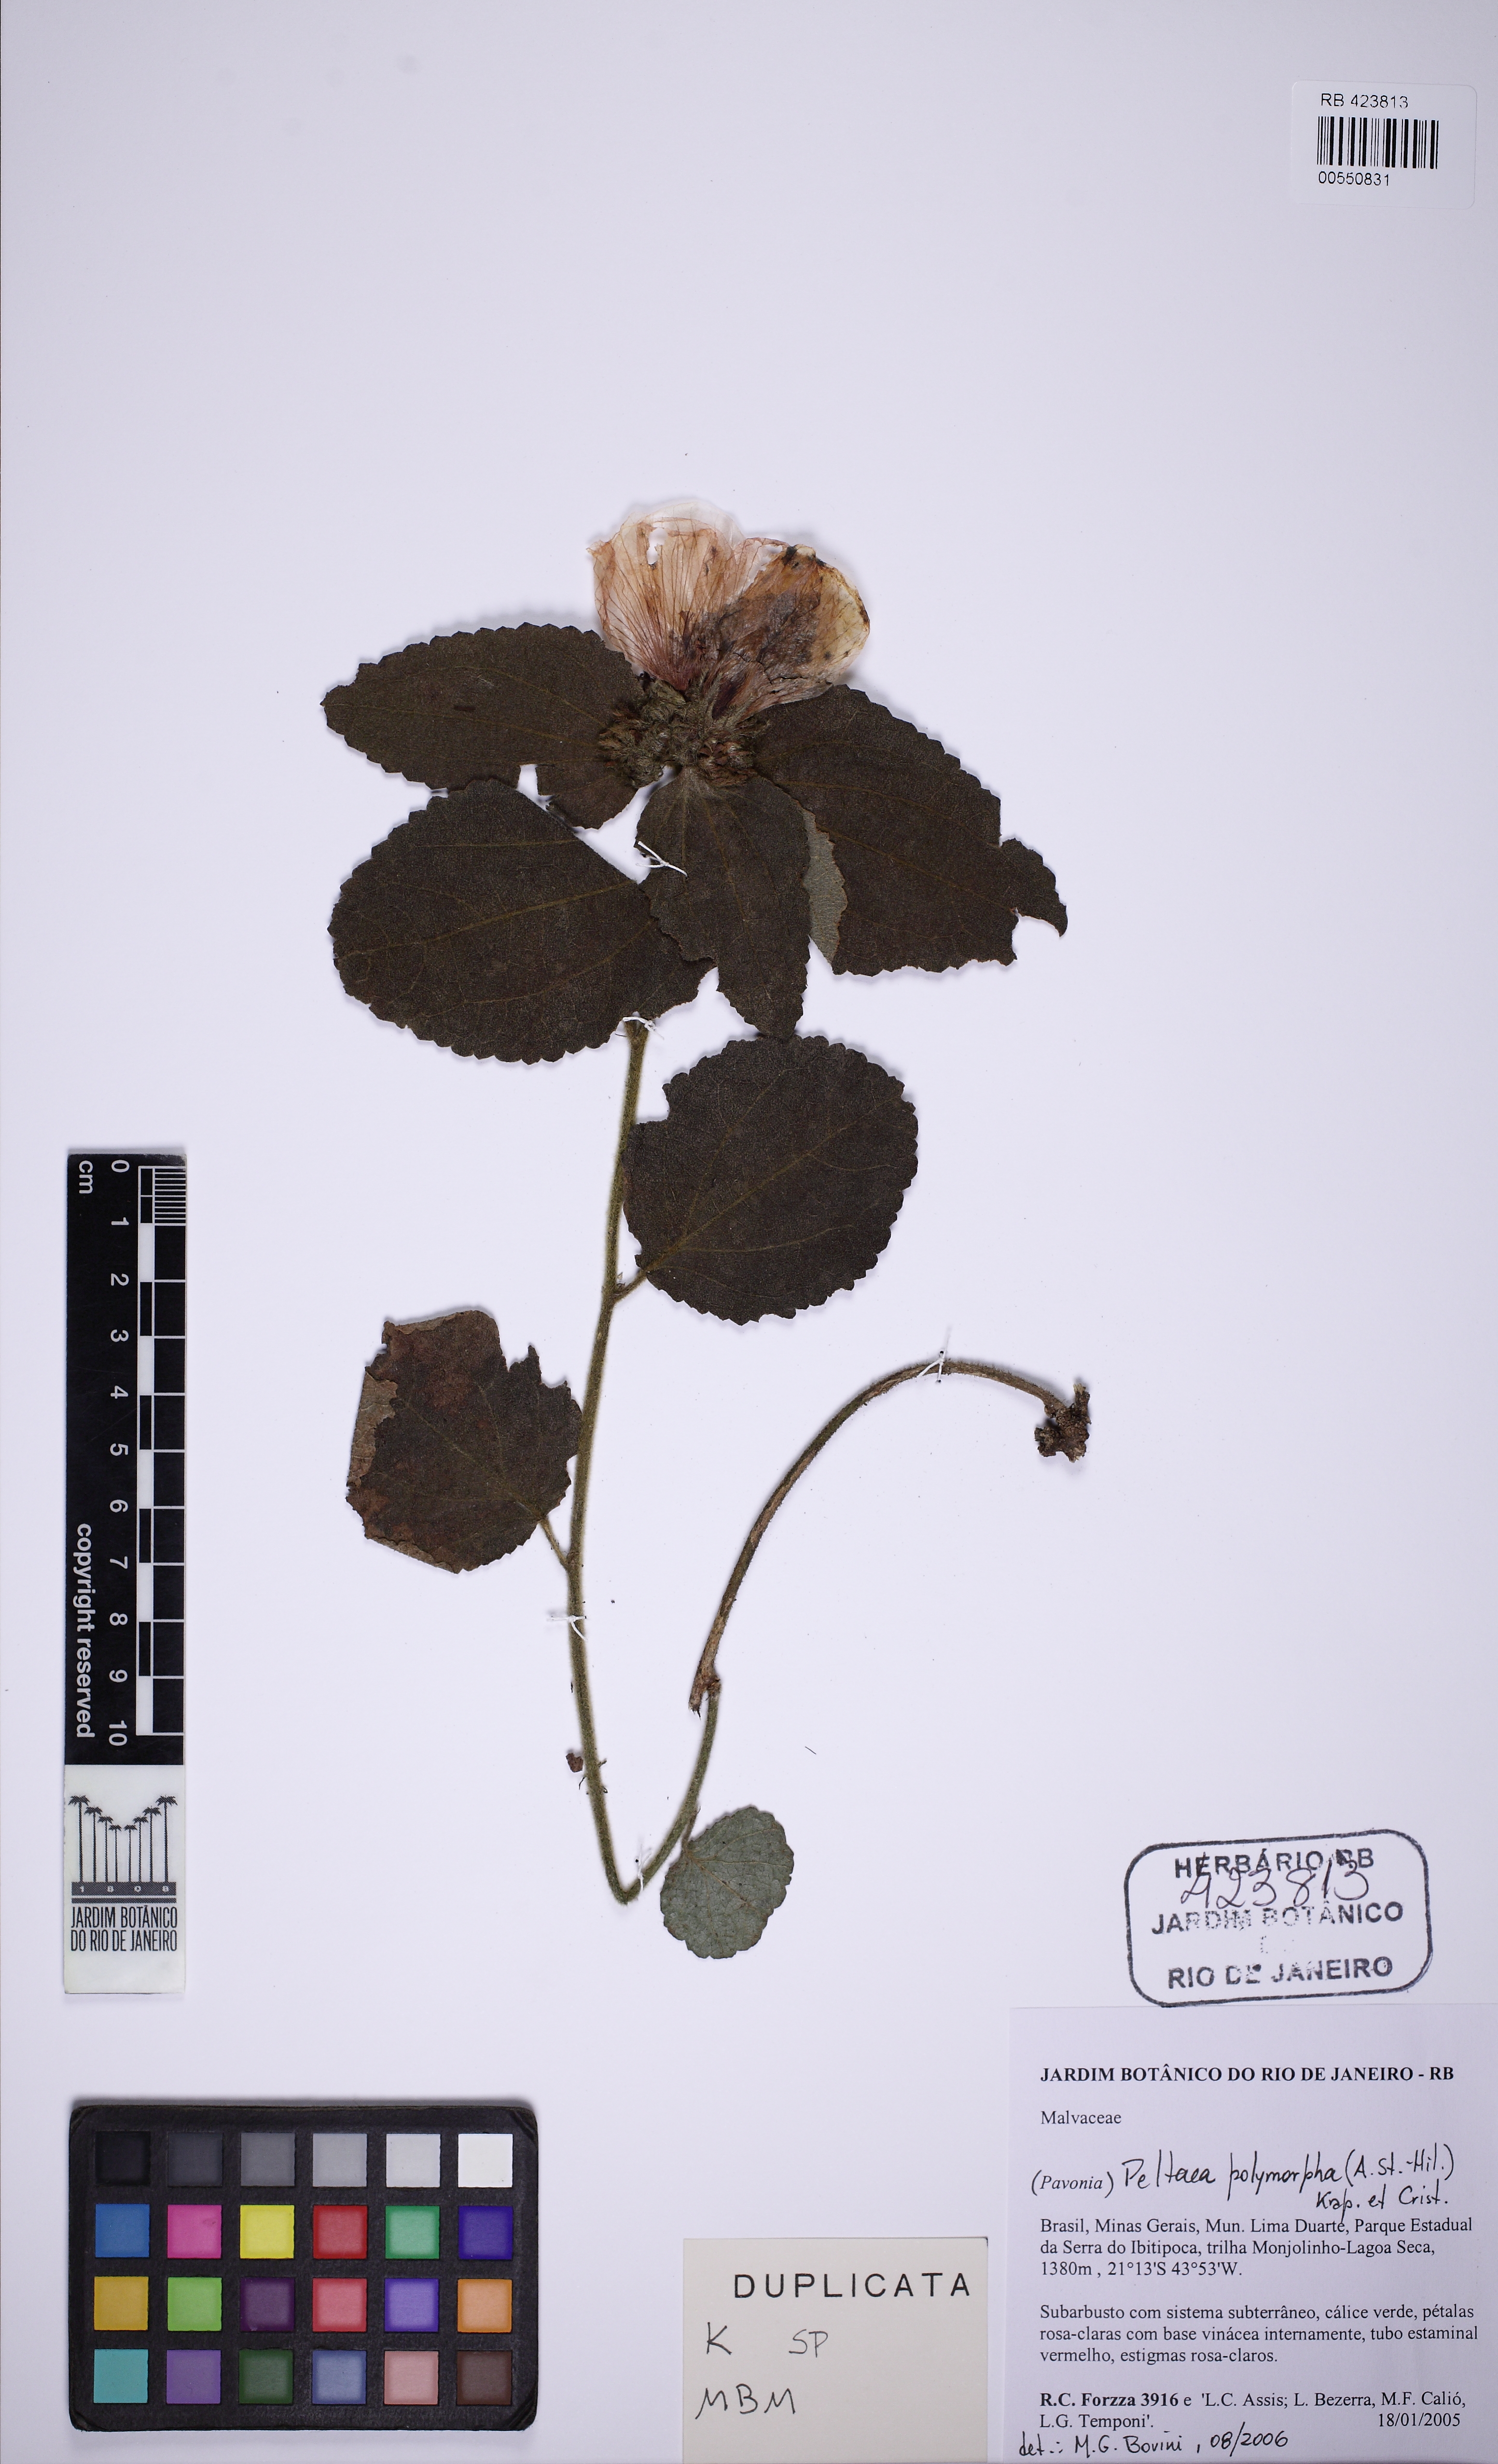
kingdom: Plantae
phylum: Tracheophyta
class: Magnoliopsida
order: Malvales
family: Malvaceae
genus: Peltaea
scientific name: Peltaea polymorpha
